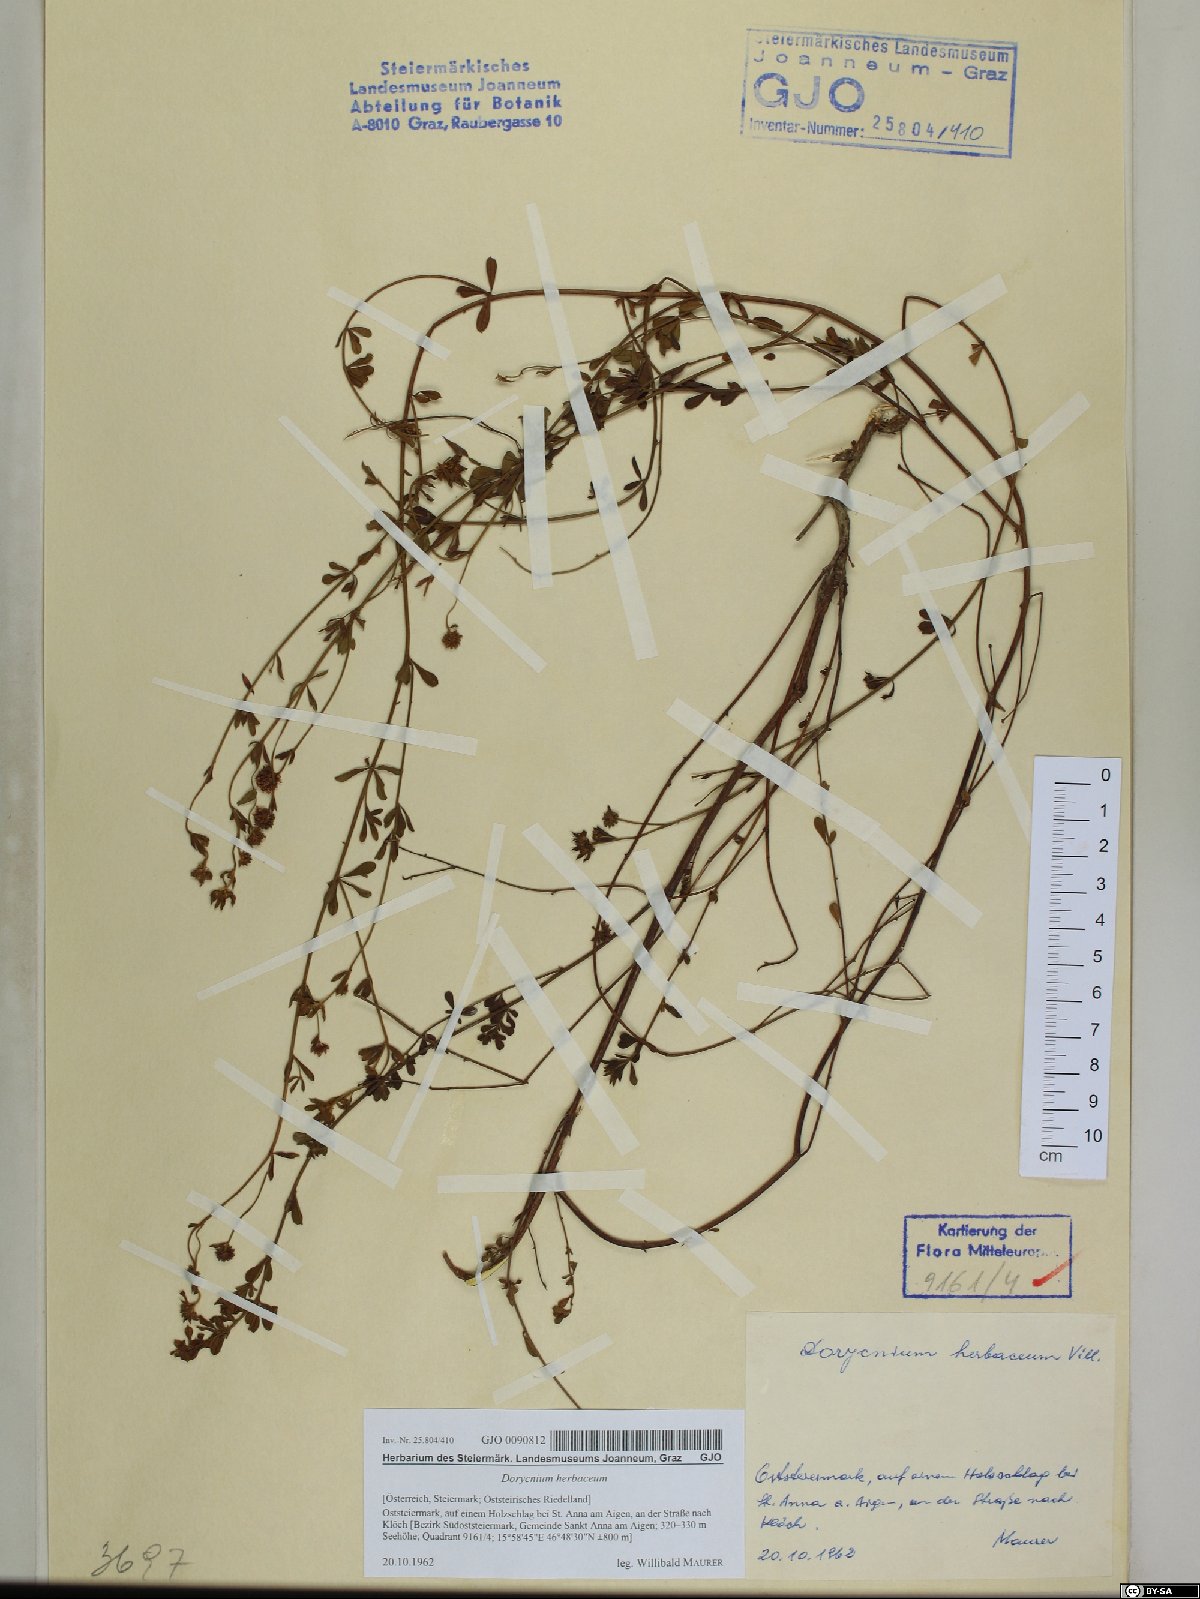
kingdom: Plantae
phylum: Tracheophyta
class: Magnoliopsida
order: Fabales
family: Fabaceae
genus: Lotus
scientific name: Lotus herbaceus
